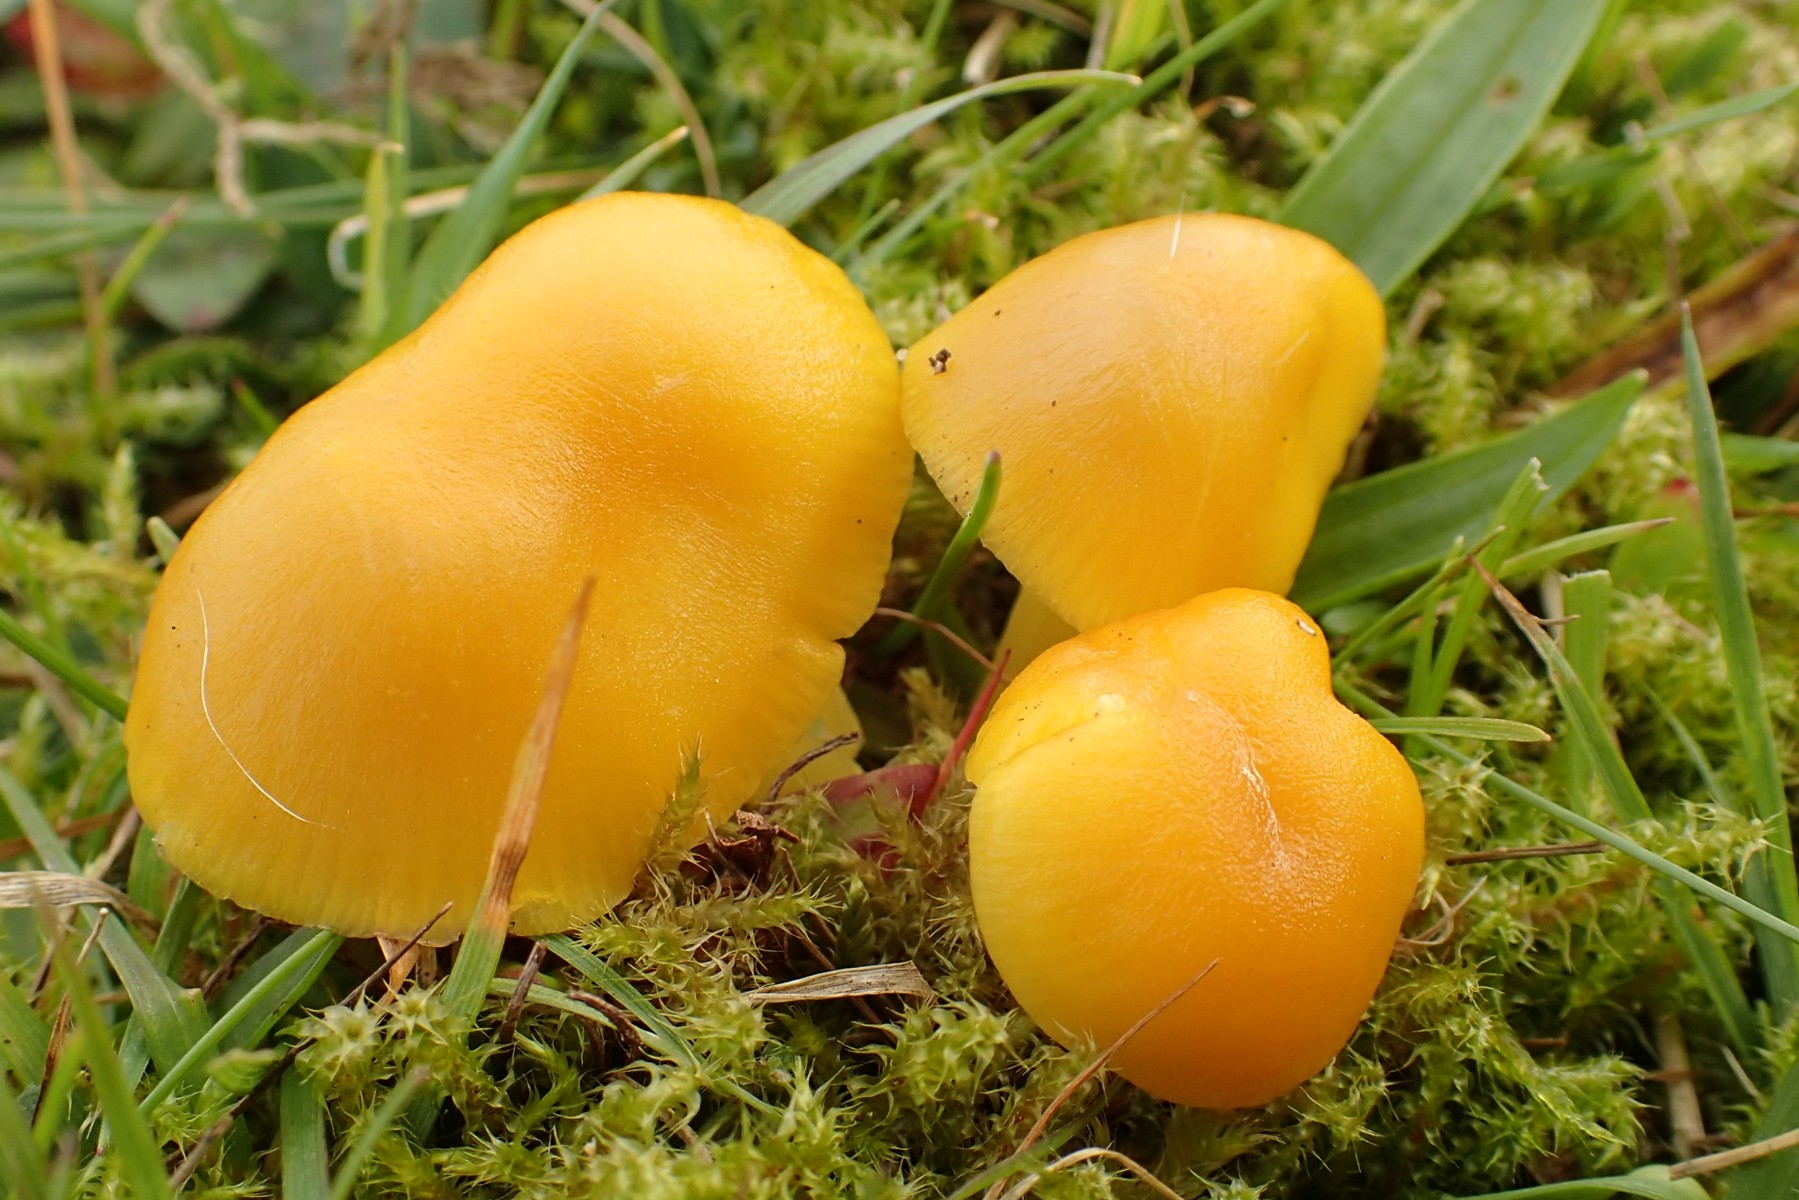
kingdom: Fungi
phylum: Basidiomycota
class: Agaricomycetes
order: Agaricales
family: Hygrophoraceae
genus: Hygrocybe
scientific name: Hygrocybe chlorophana
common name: gul vokshat
